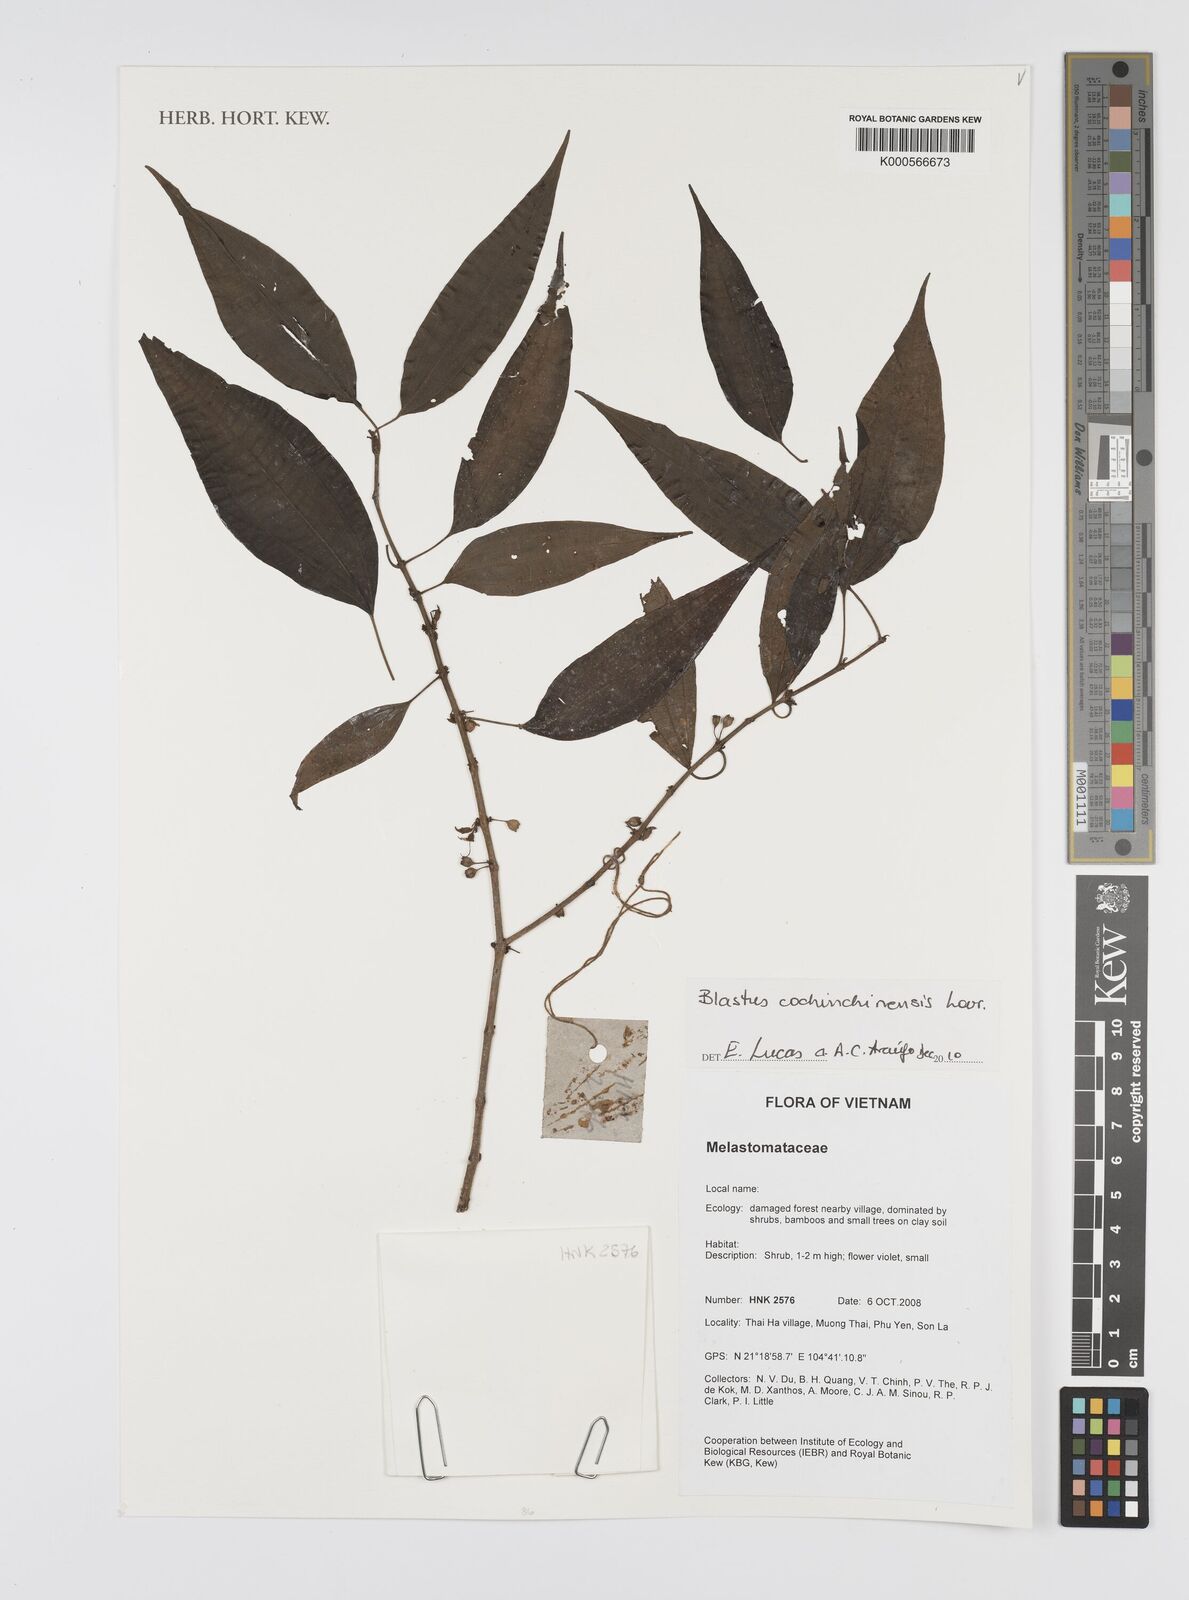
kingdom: Plantae
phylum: Tracheophyta
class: Magnoliopsida
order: Myrtales
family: Melastomataceae
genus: Blastus
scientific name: Blastus cochinchinensis
